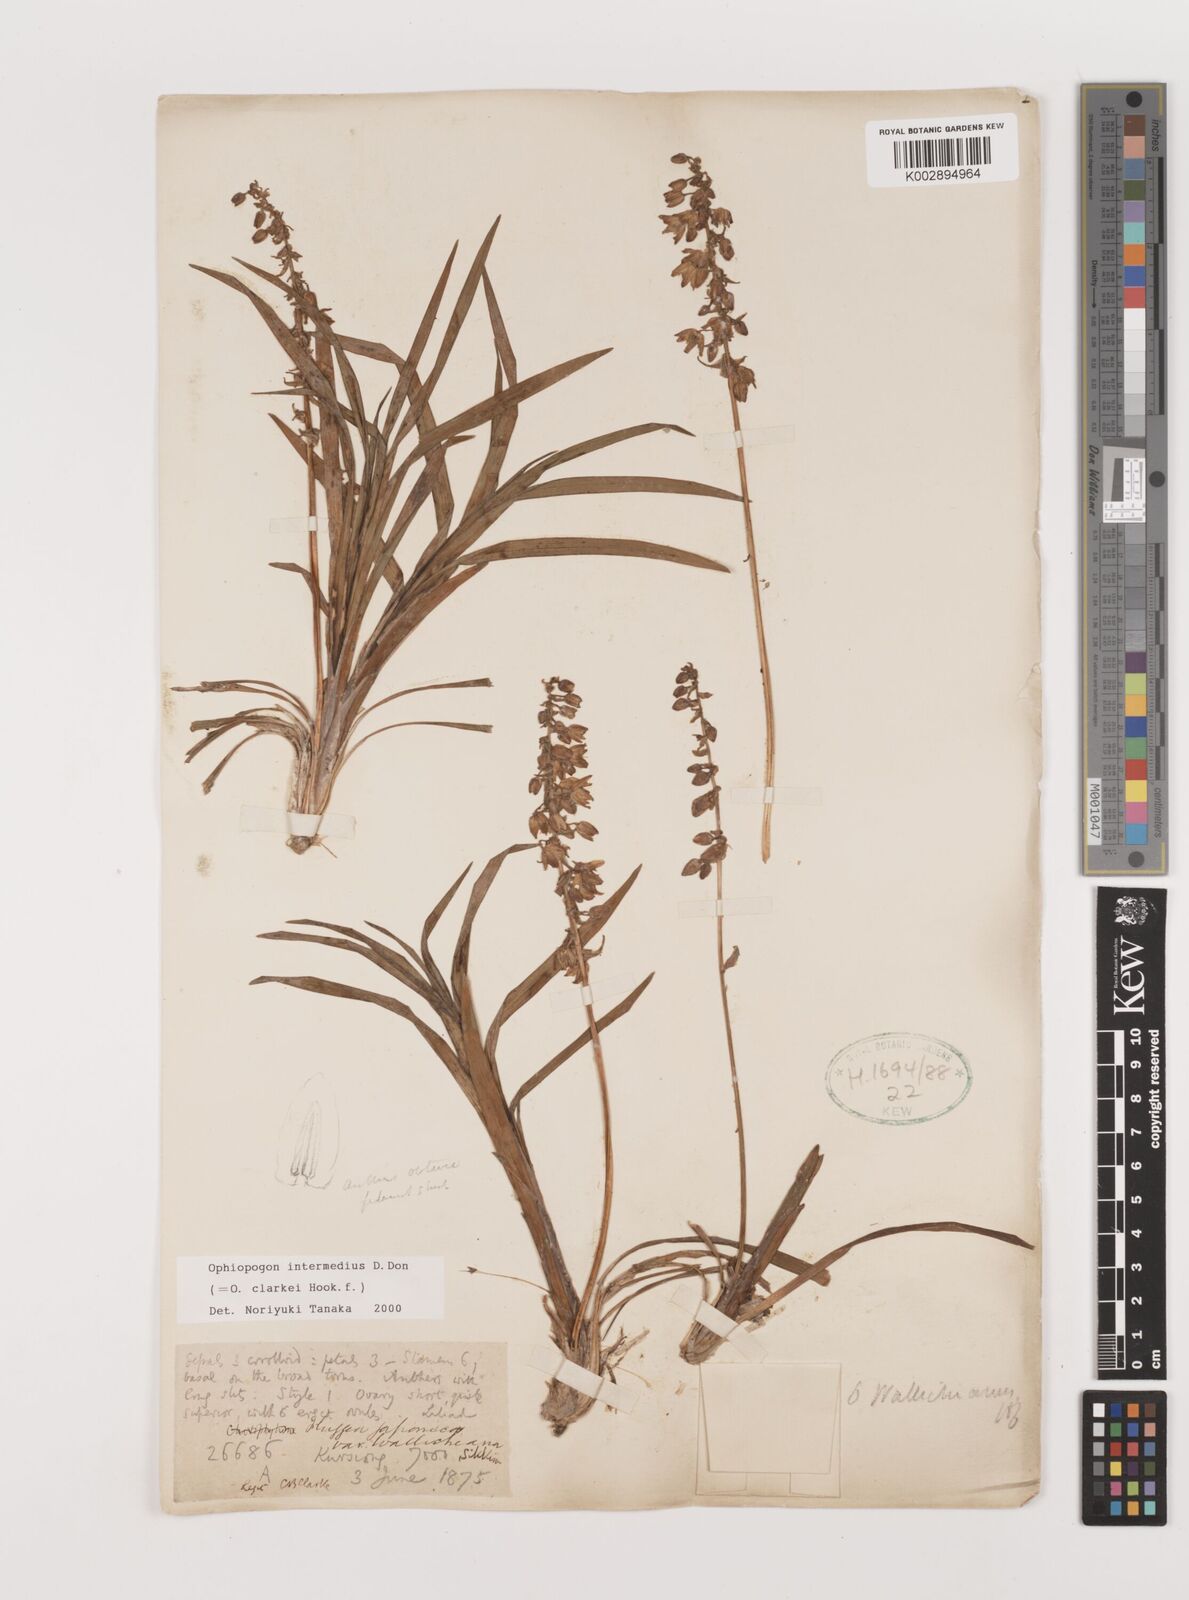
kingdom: Plantae
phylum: Tracheophyta
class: Liliopsida
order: Asparagales
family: Asparagaceae
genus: Ophiopogon
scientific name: Ophiopogon intermedius
